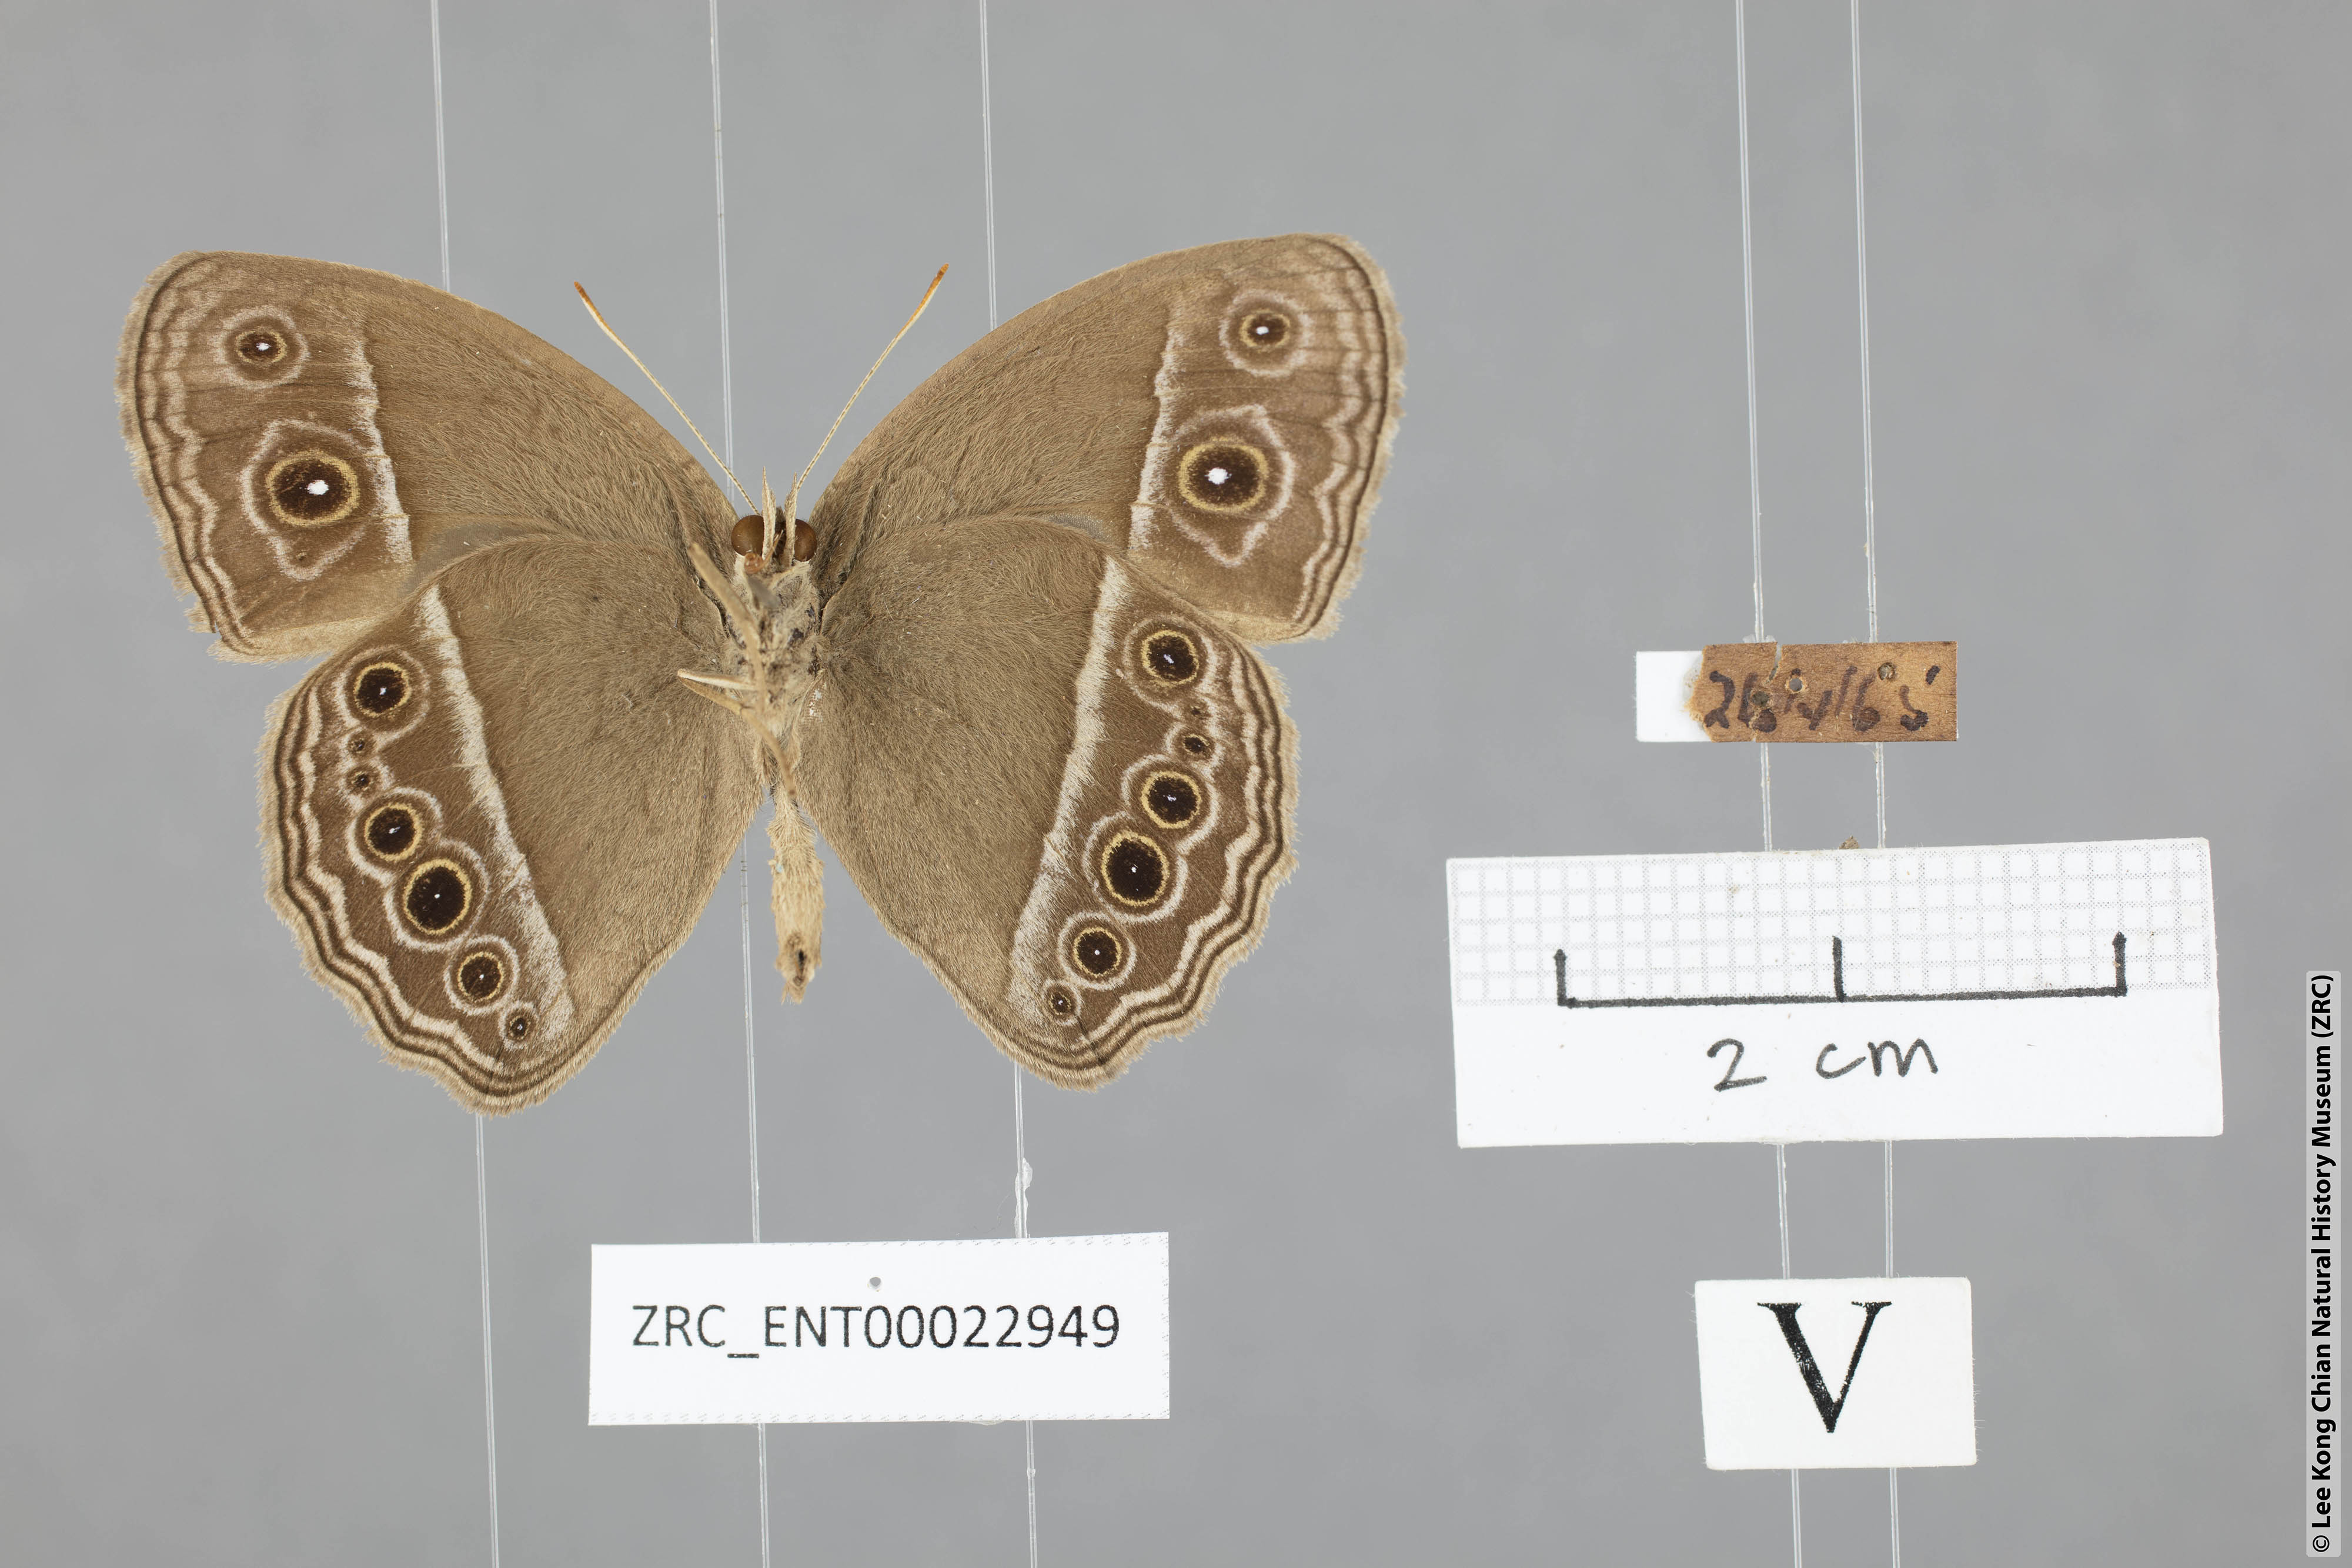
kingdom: Animalia
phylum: Arthropoda
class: Insecta
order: Lepidoptera
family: Nymphalidae
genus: Mycalesis
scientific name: Mycalesis mineus
